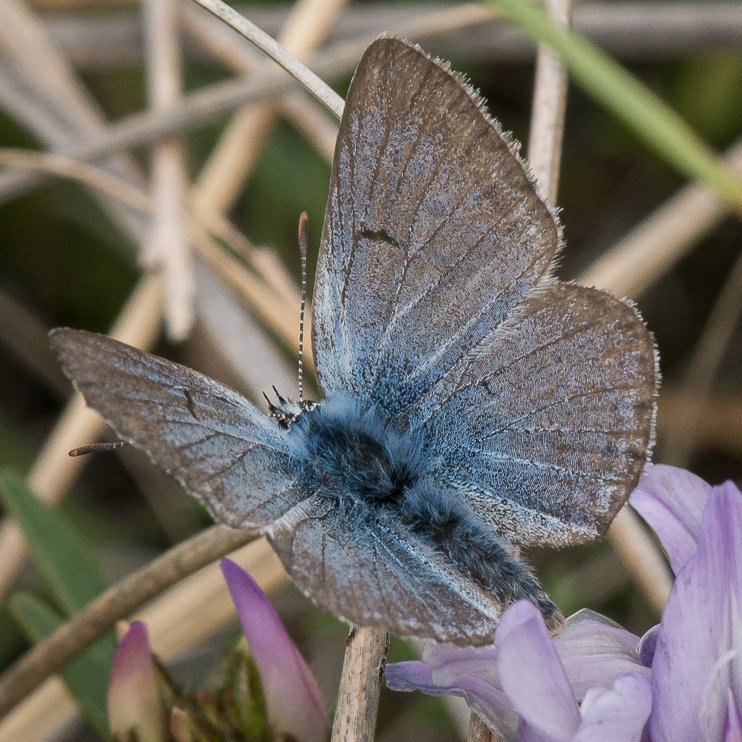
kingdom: Animalia
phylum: Arthropoda
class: Insecta
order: Lepidoptera
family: Lycaenidae
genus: Plebejus
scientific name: Plebejus saepiolus
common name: Greenish Blue
